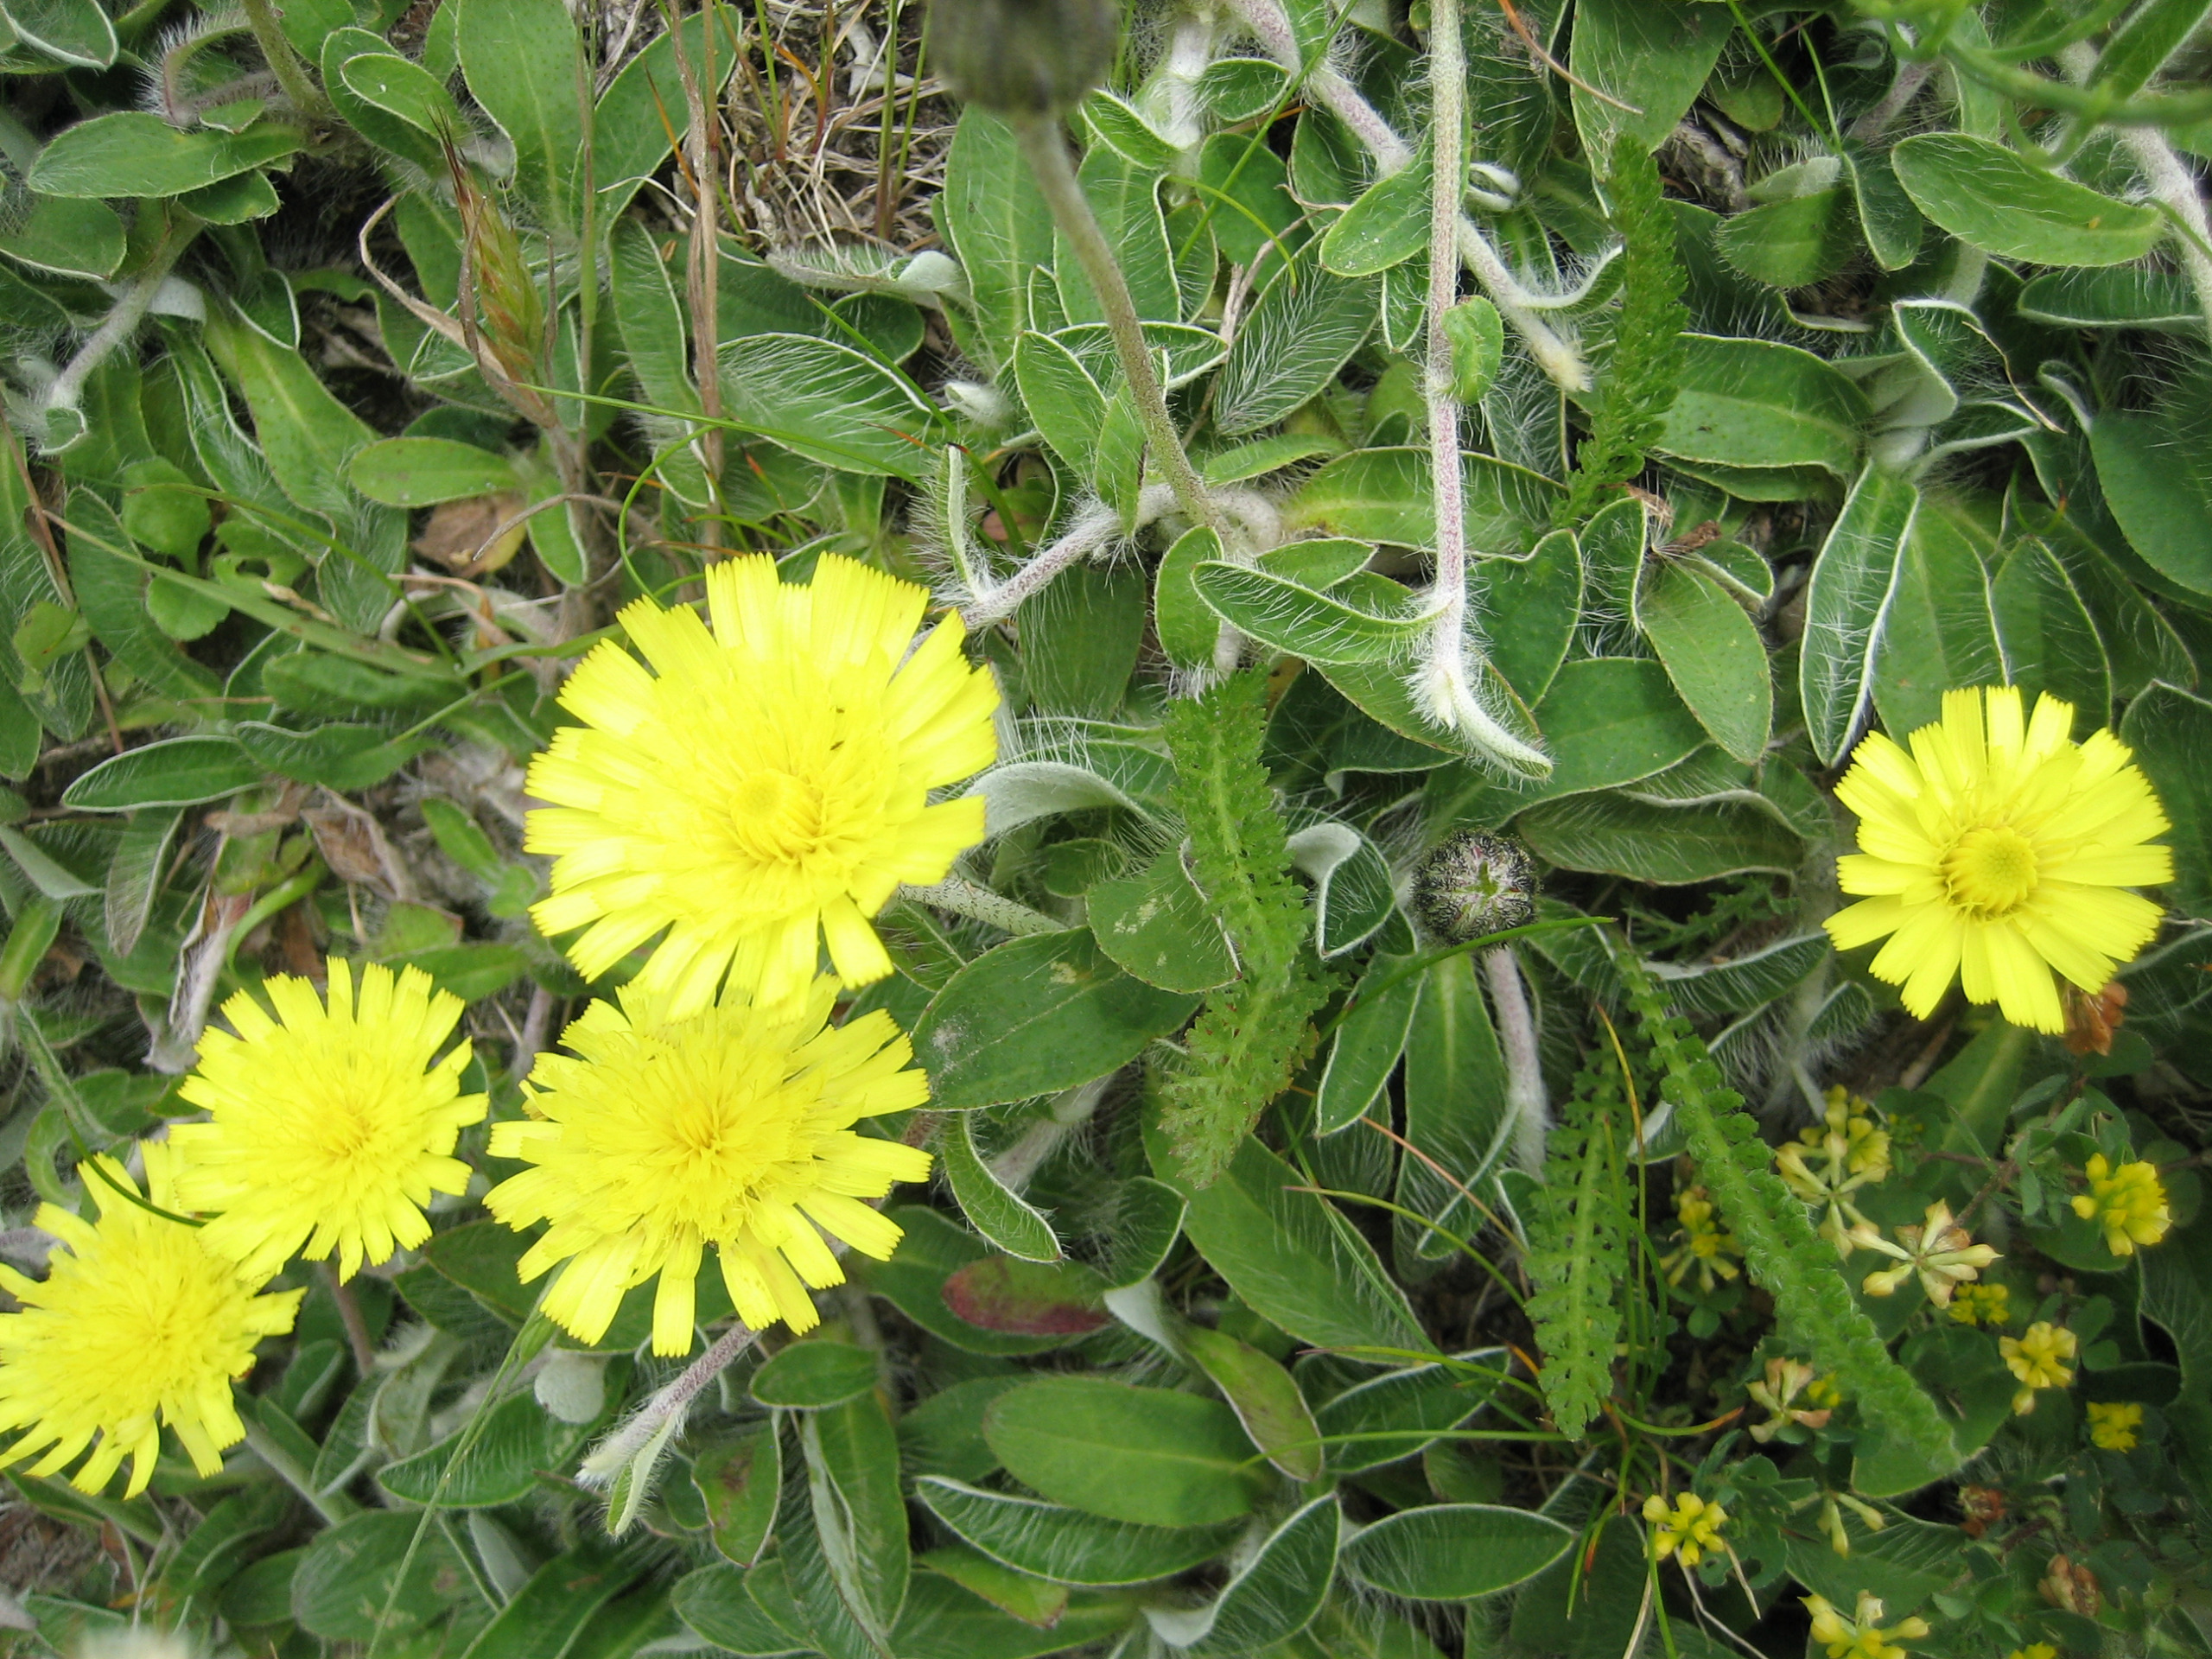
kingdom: Plantae
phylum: Tracheophyta
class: Magnoliopsida
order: Asterales
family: Asteraceae
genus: Pilosella
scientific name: Pilosella officinarum
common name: Håret høgeurt
